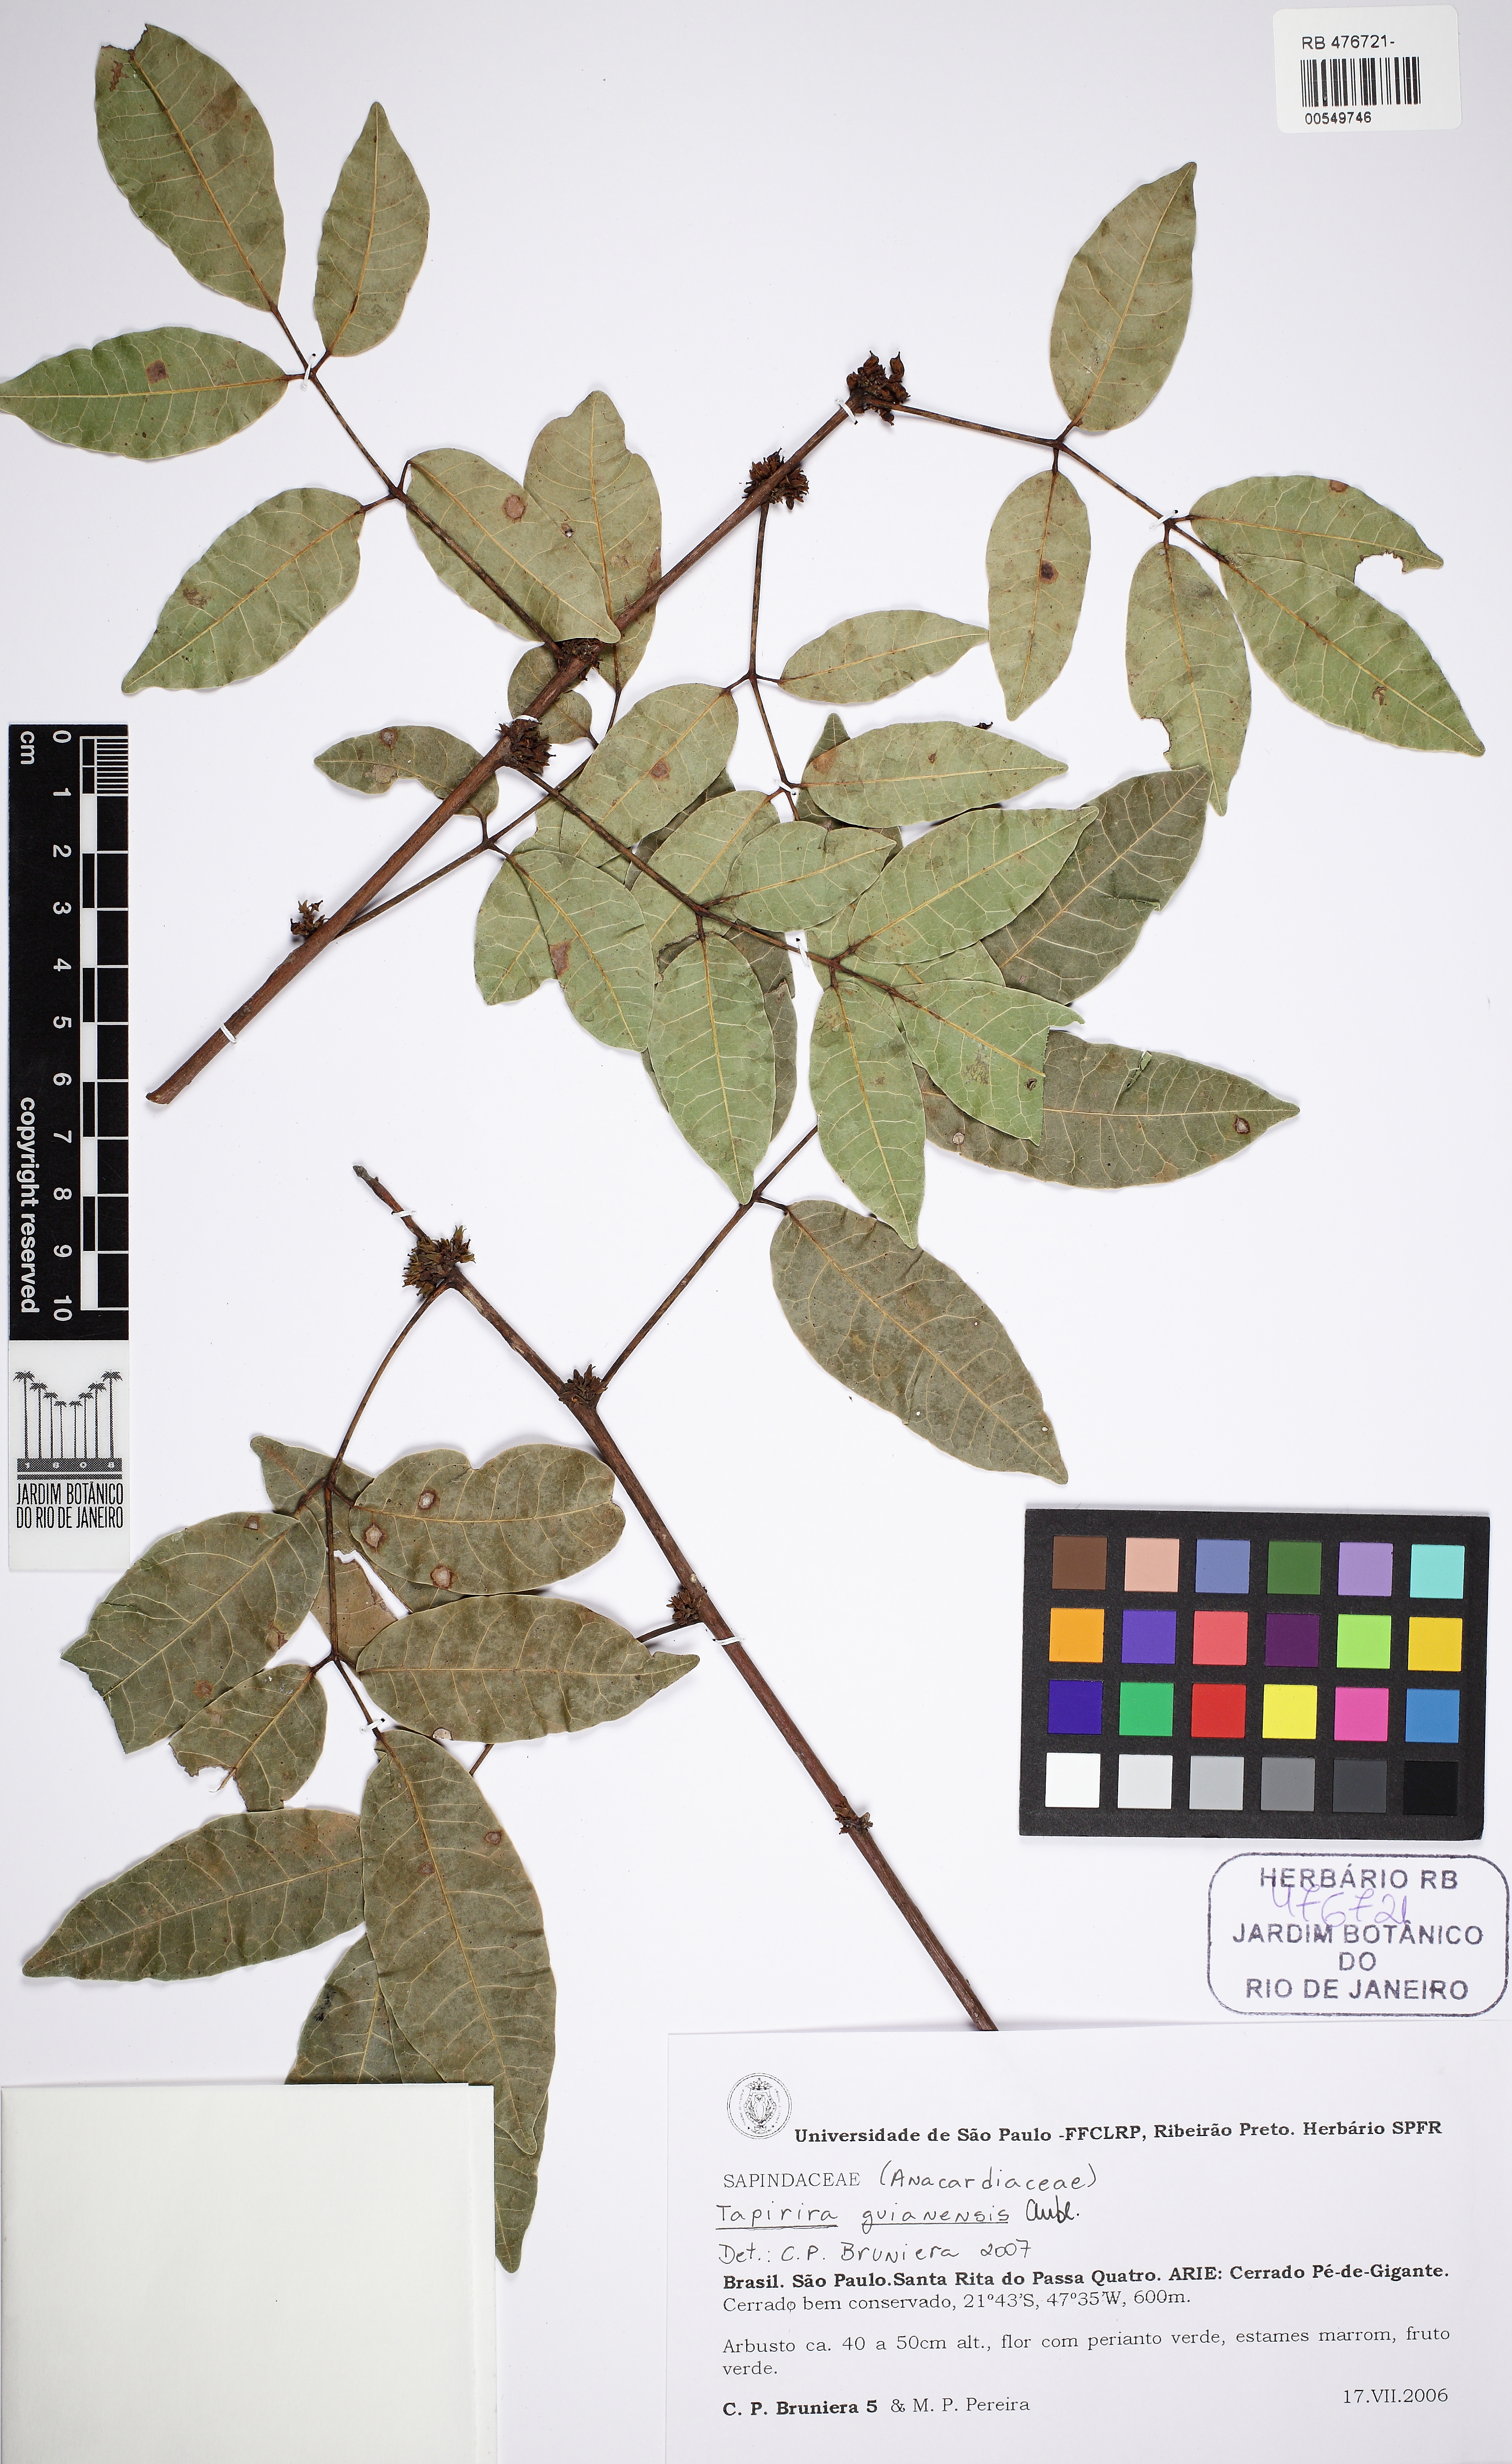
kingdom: Plantae
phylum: Tracheophyta
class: Magnoliopsida
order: Sapindales
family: Anacardiaceae
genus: Tapirira
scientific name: Tapirira guianensis
